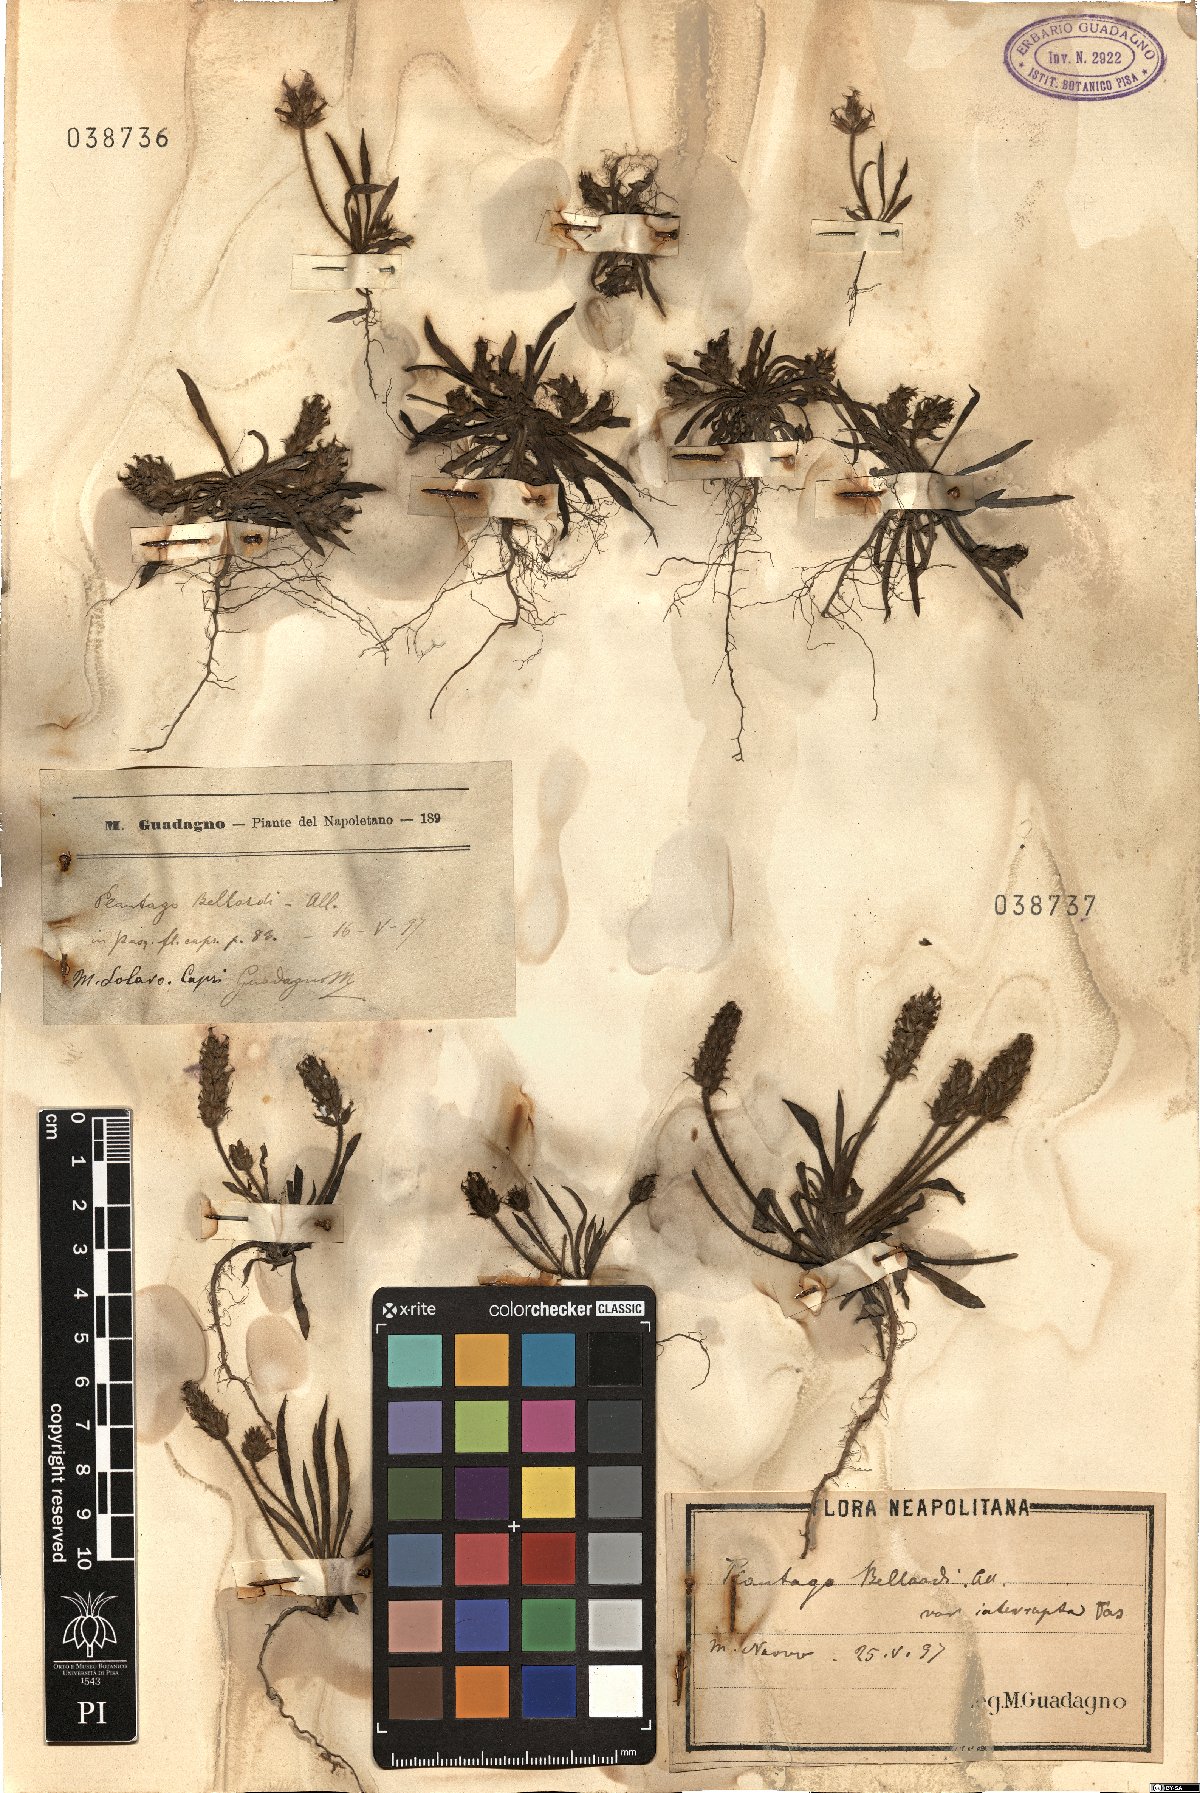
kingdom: Plantae
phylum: Tracheophyta
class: Magnoliopsida
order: Lamiales
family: Plantaginaceae
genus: Plantago
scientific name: Plantago bellardii
